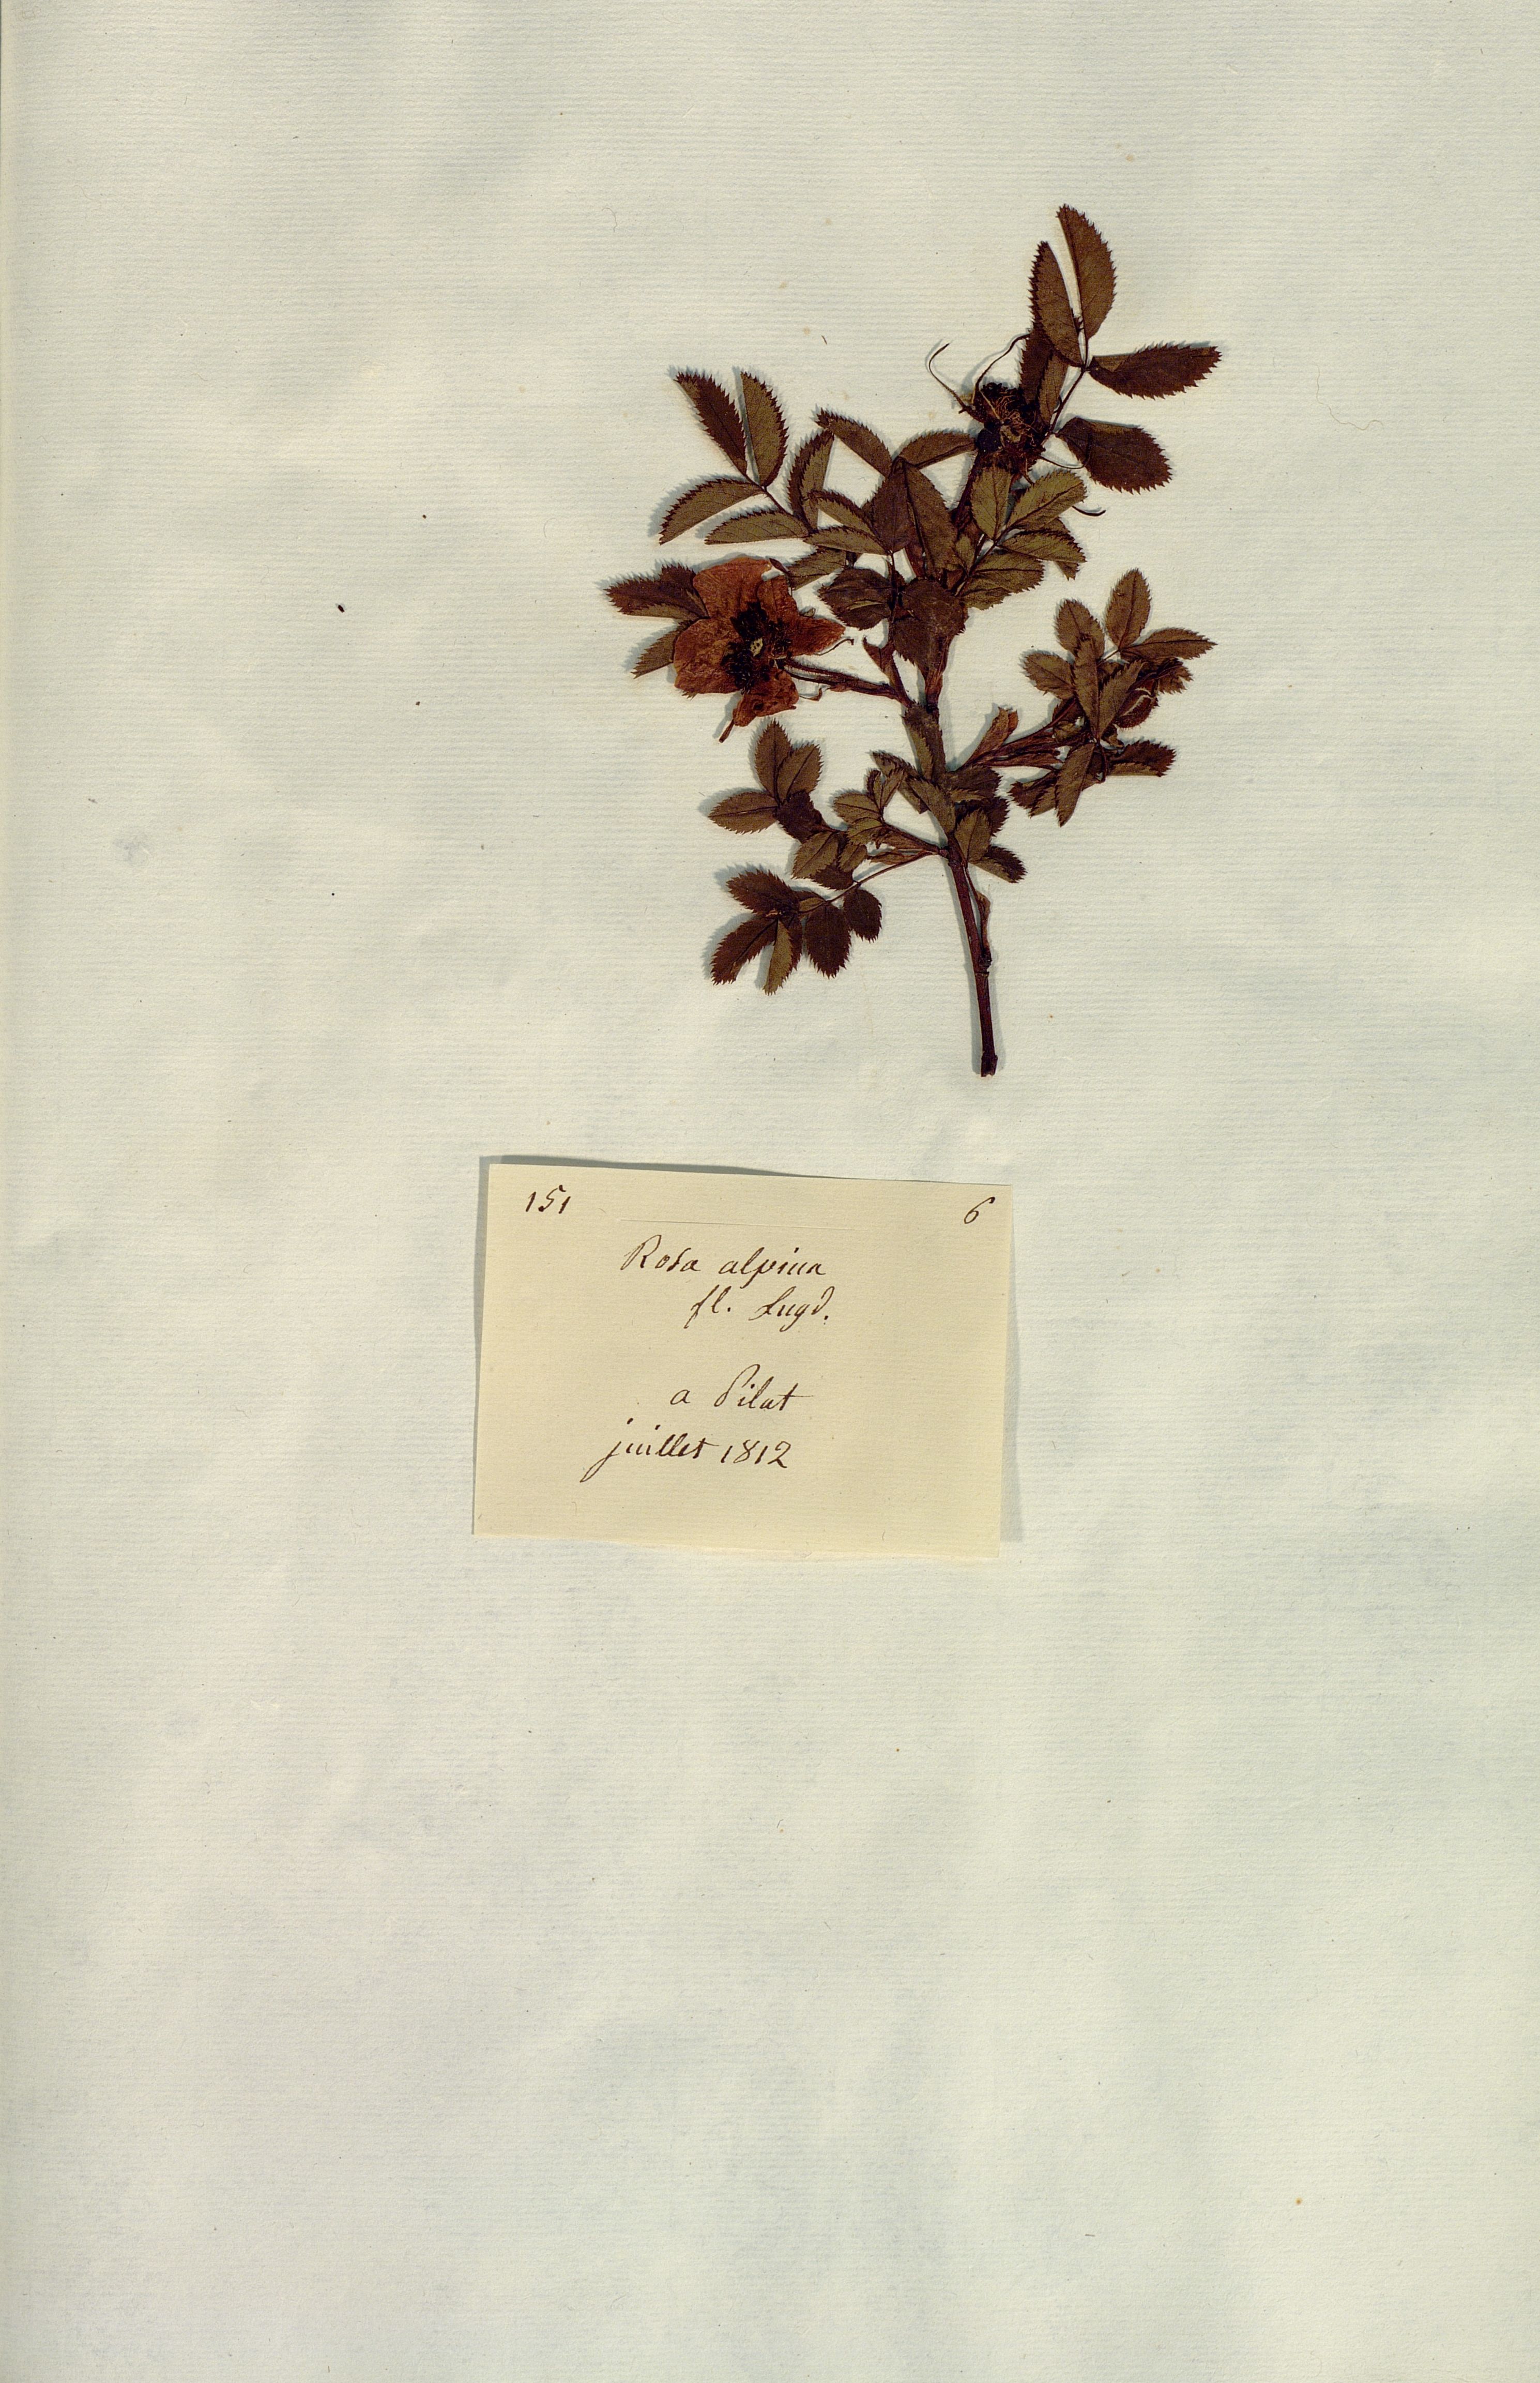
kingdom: Plantae
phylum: Tracheophyta
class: Magnoliopsida
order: Rosales
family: Rosaceae
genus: Rosa
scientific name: Rosa
